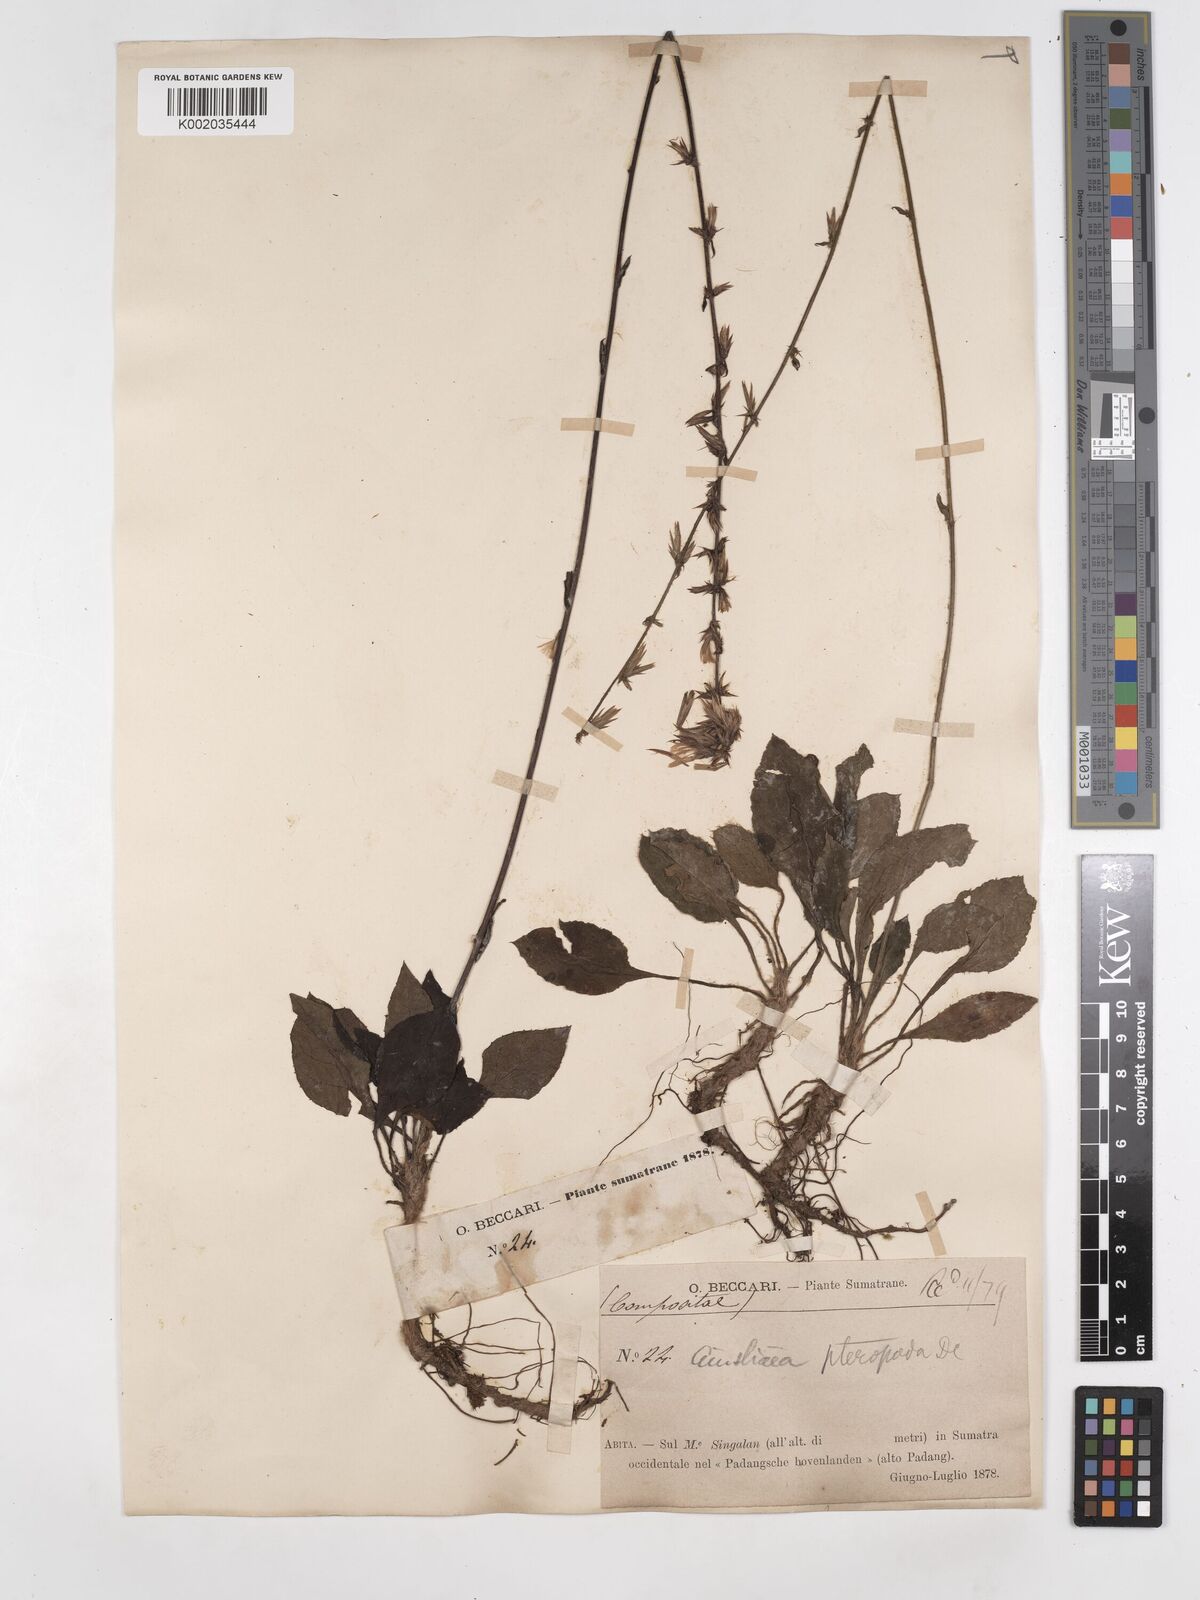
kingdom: Plantae
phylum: Tracheophyta
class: Magnoliopsida
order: Asterales
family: Asteraceae
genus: Ainsliaea
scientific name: Ainsliaea latifolia
